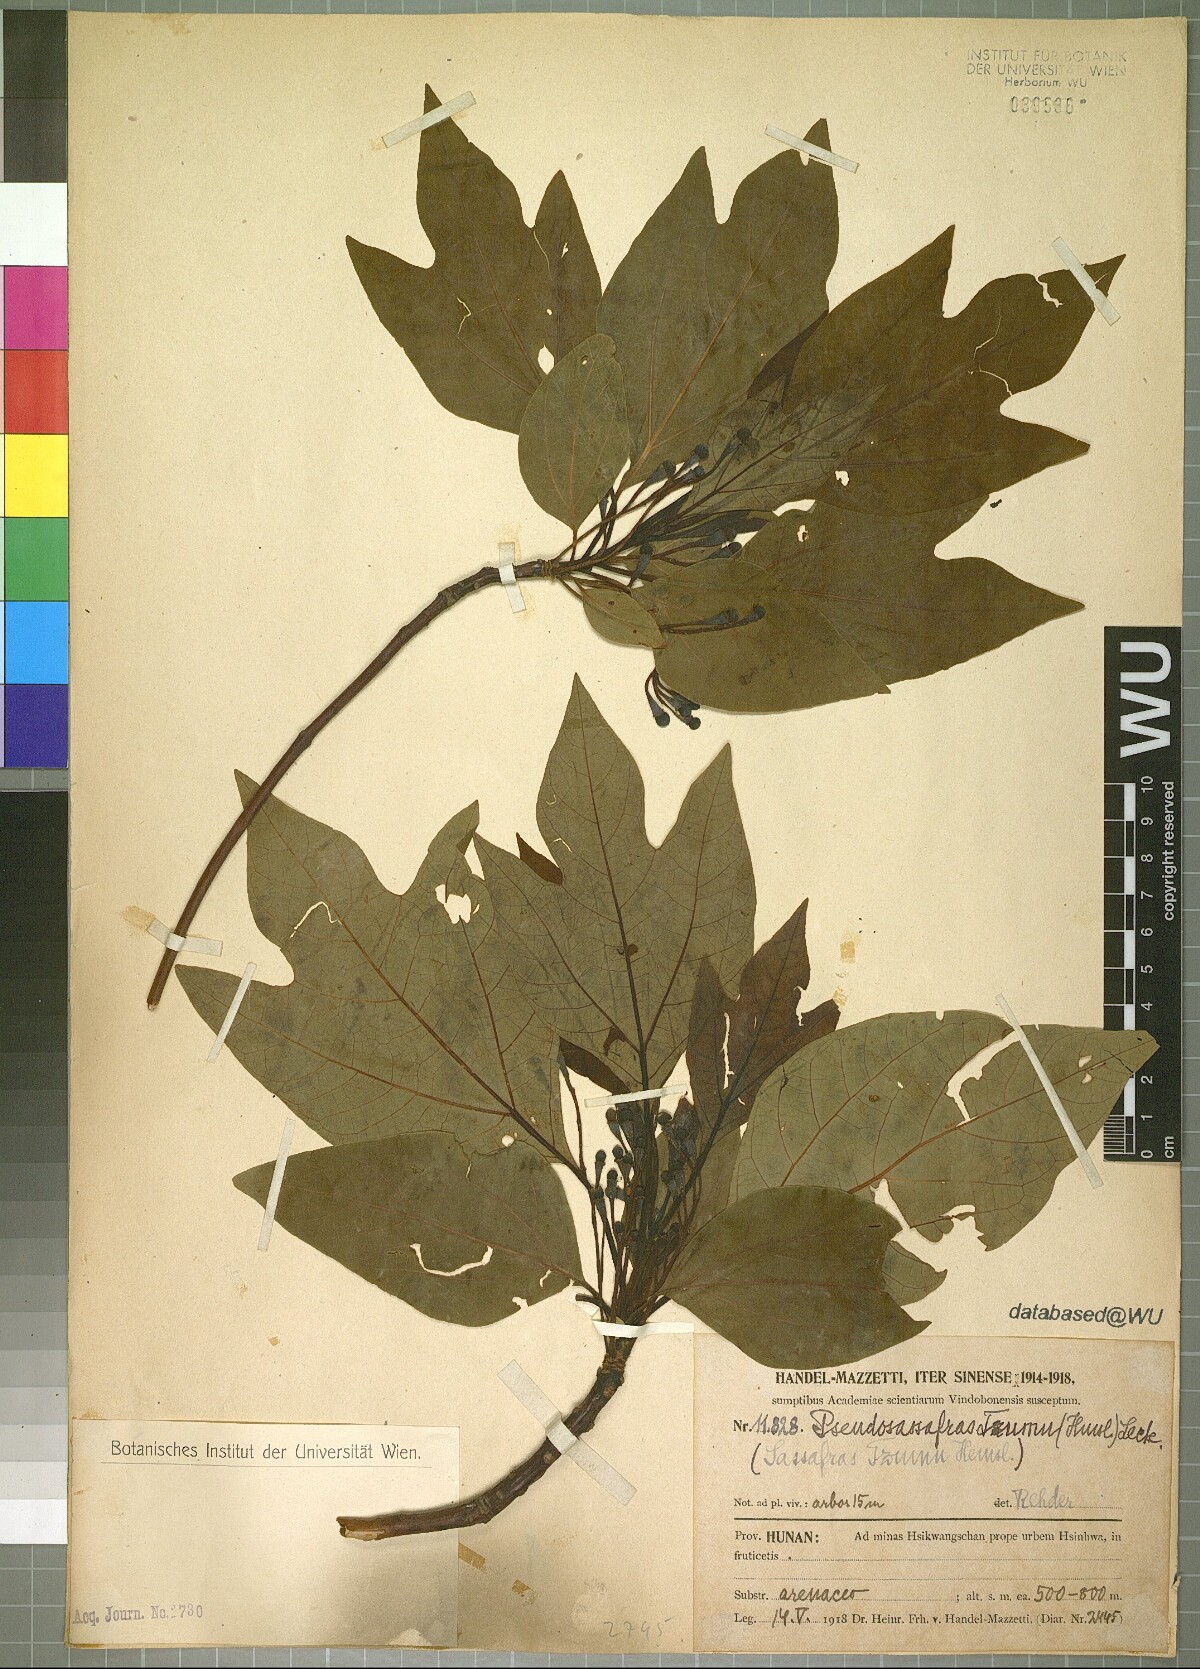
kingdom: Plantae
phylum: Tracheophyta
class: Magnoliopsida
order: Laurales
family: Lauraceae
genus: Sassafras
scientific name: Sassafras tzumu
